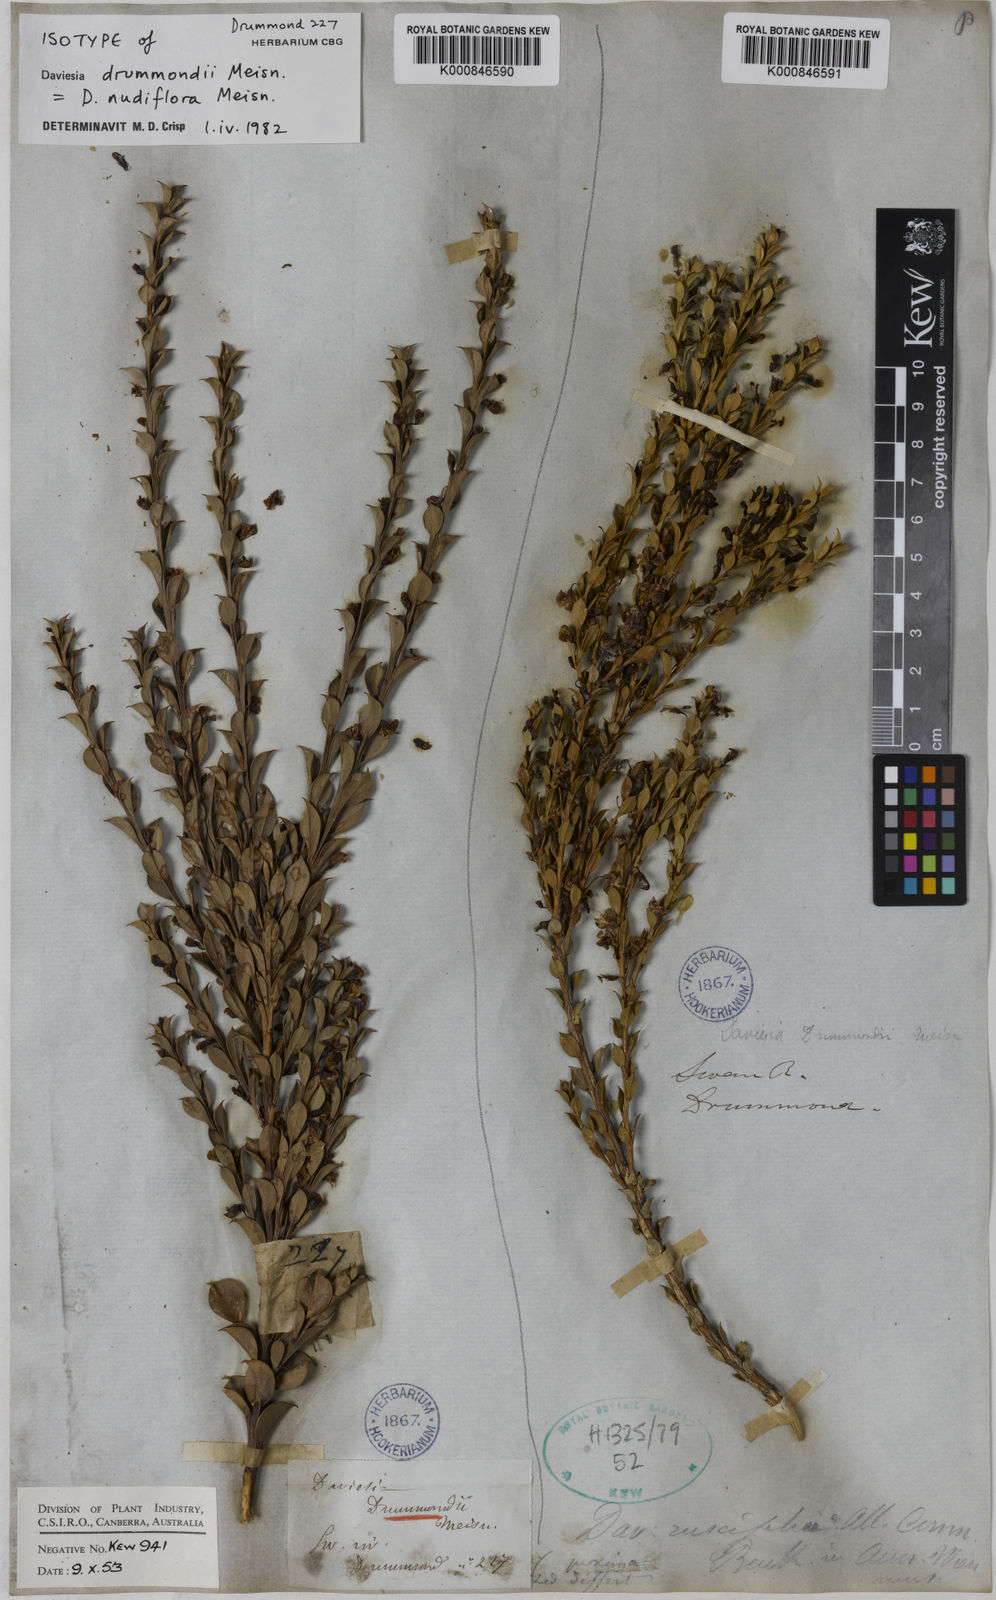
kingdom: Plantae
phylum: Tracheophyta
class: Magnoliopsida
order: Fabales
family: Fabaceae
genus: Daviesia
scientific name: Daviesia nudiflora
